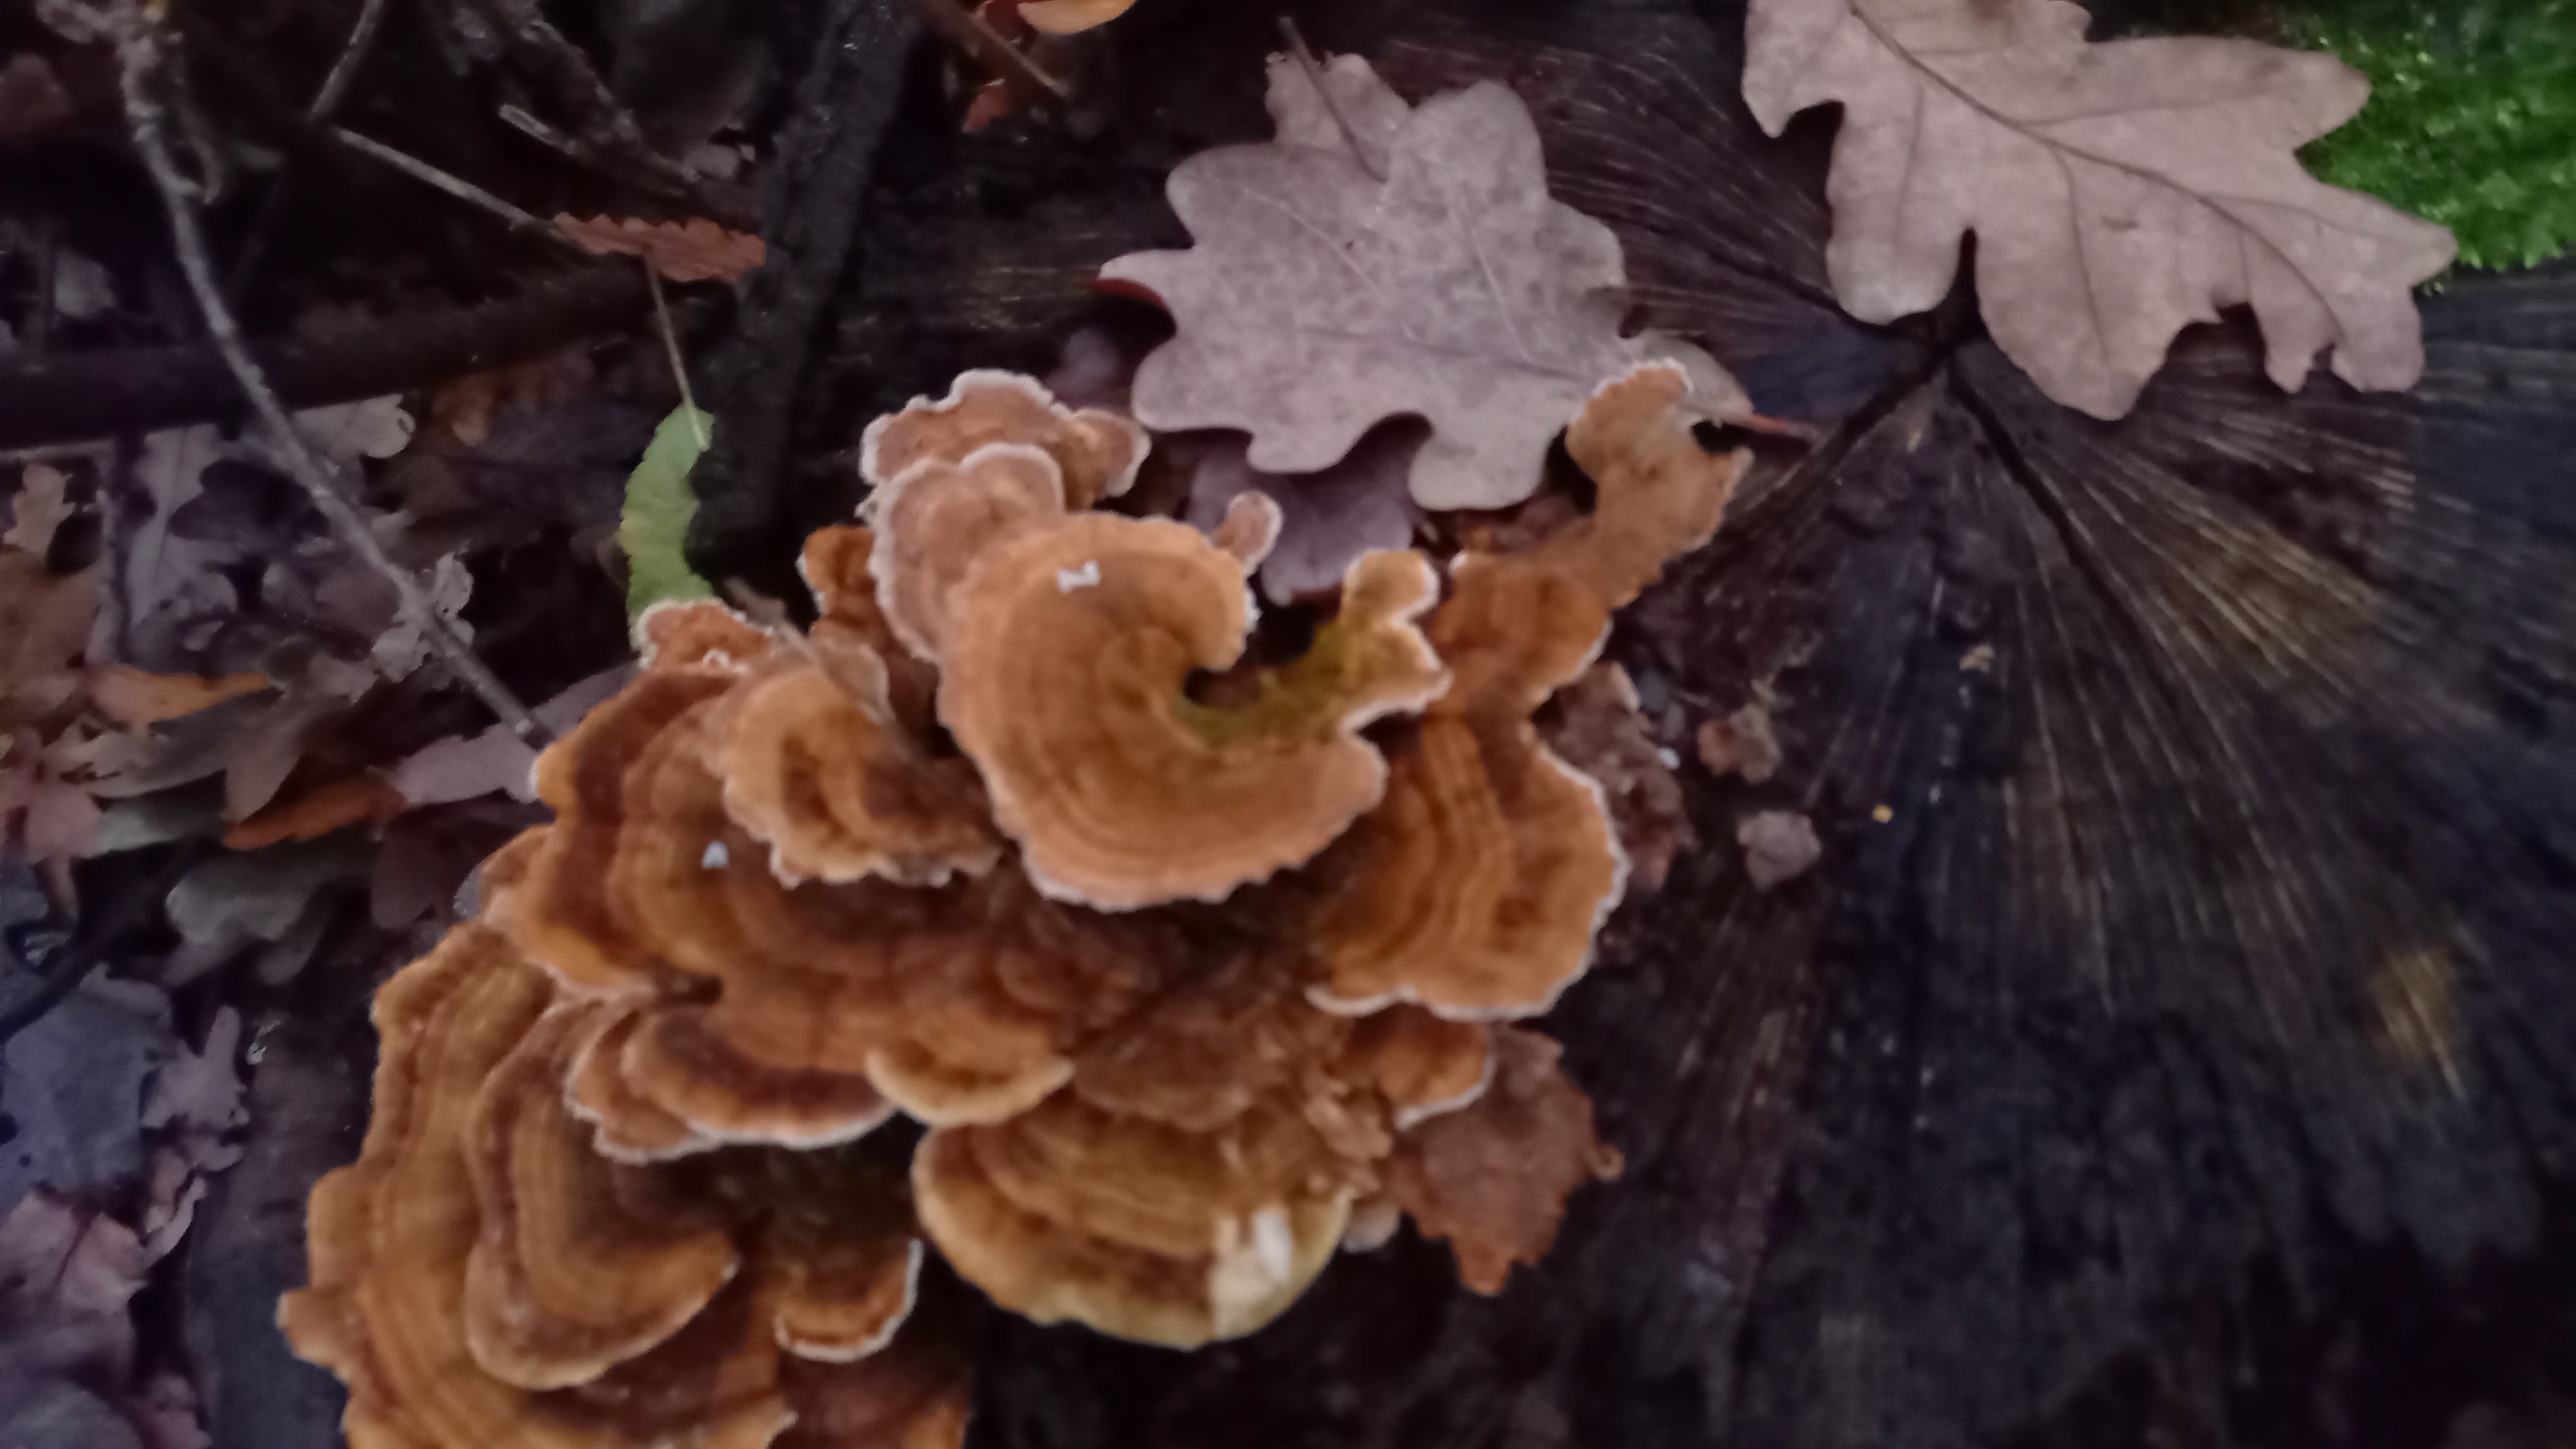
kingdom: Fungi
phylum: Basidiomycota
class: Agaricomycetes
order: Polyporales
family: Polyporaceae
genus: Trametes
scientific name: Trametes
